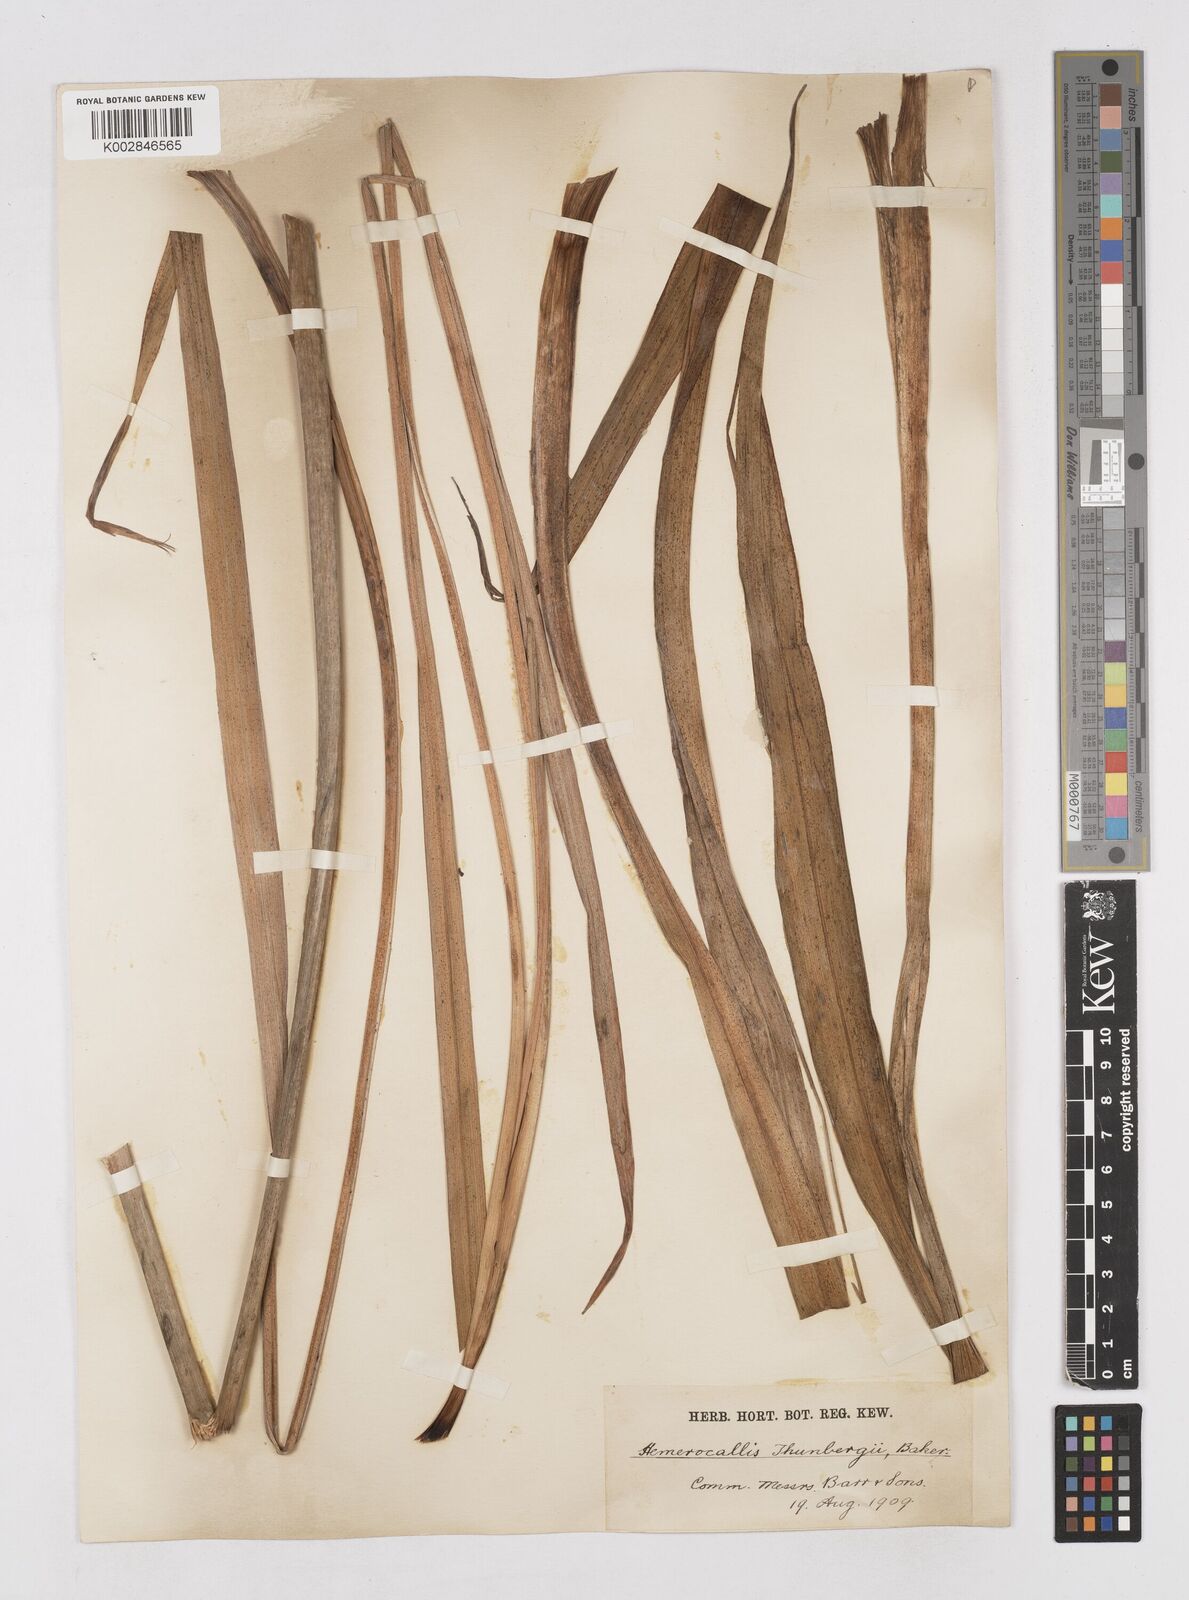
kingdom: Plantae
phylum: Tracheophyta
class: Liliopsida
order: Asparagales
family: Asphodelaceae
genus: Hemerocallis
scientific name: Hemerocallis thunbergii
